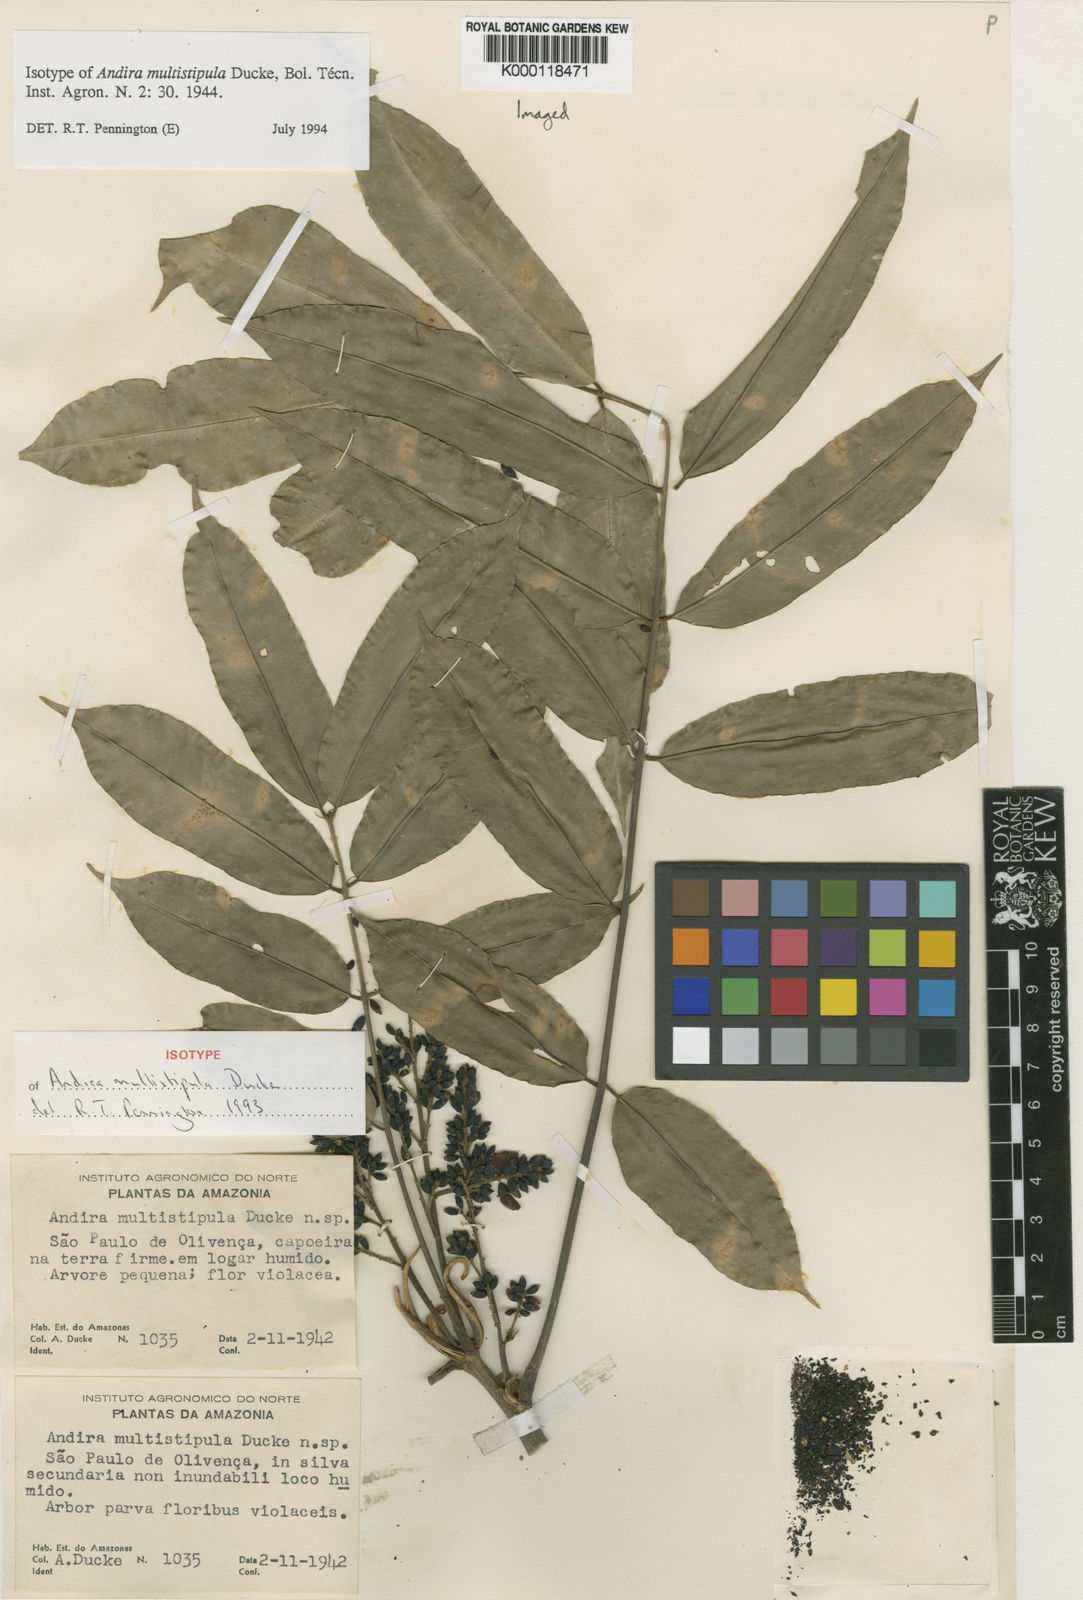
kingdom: Plantae
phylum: Tracheophyta
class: Magnoliopsida
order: Fabales
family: Fabaceae
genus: Andira
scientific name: Andira multistipula
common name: Pisho
